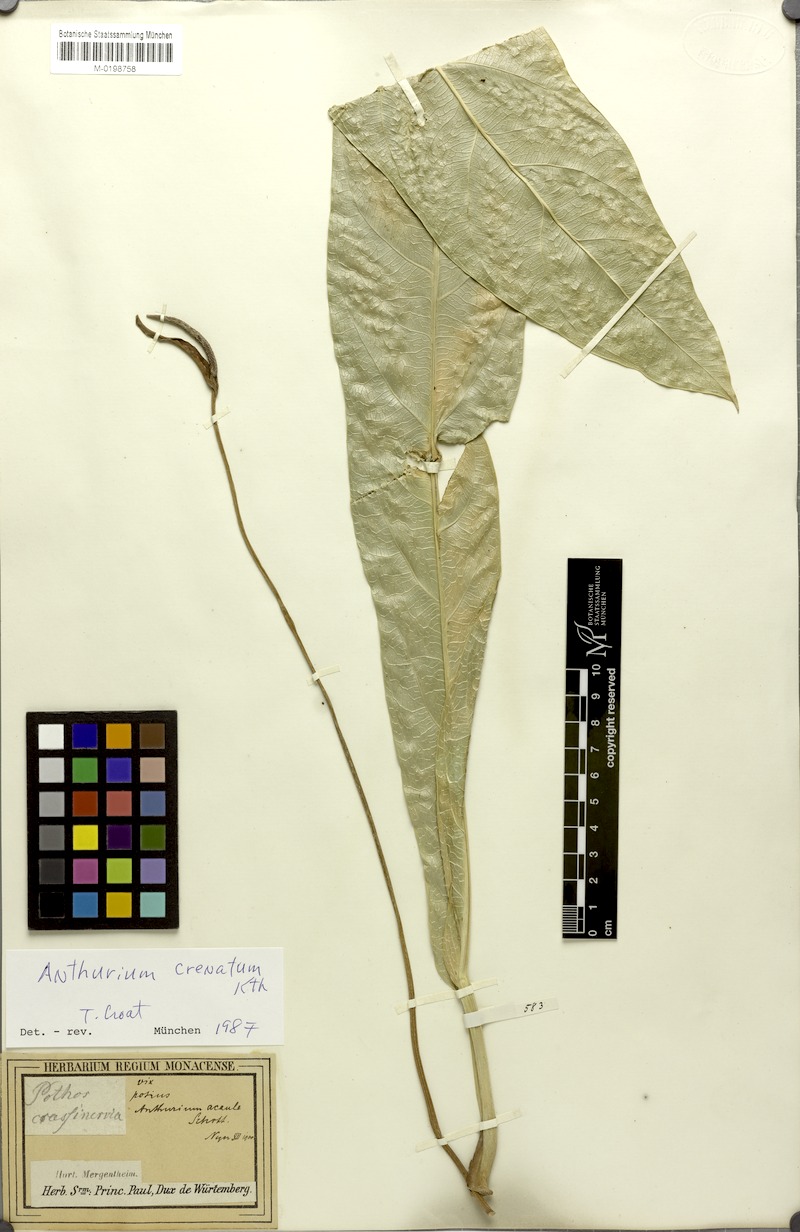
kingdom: Plantae
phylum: Tracheophyta
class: Liliopsida
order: Alismatales
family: Araceae
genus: Anthurium
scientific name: Anthurium crenatum
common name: Scalloped laceleaf
